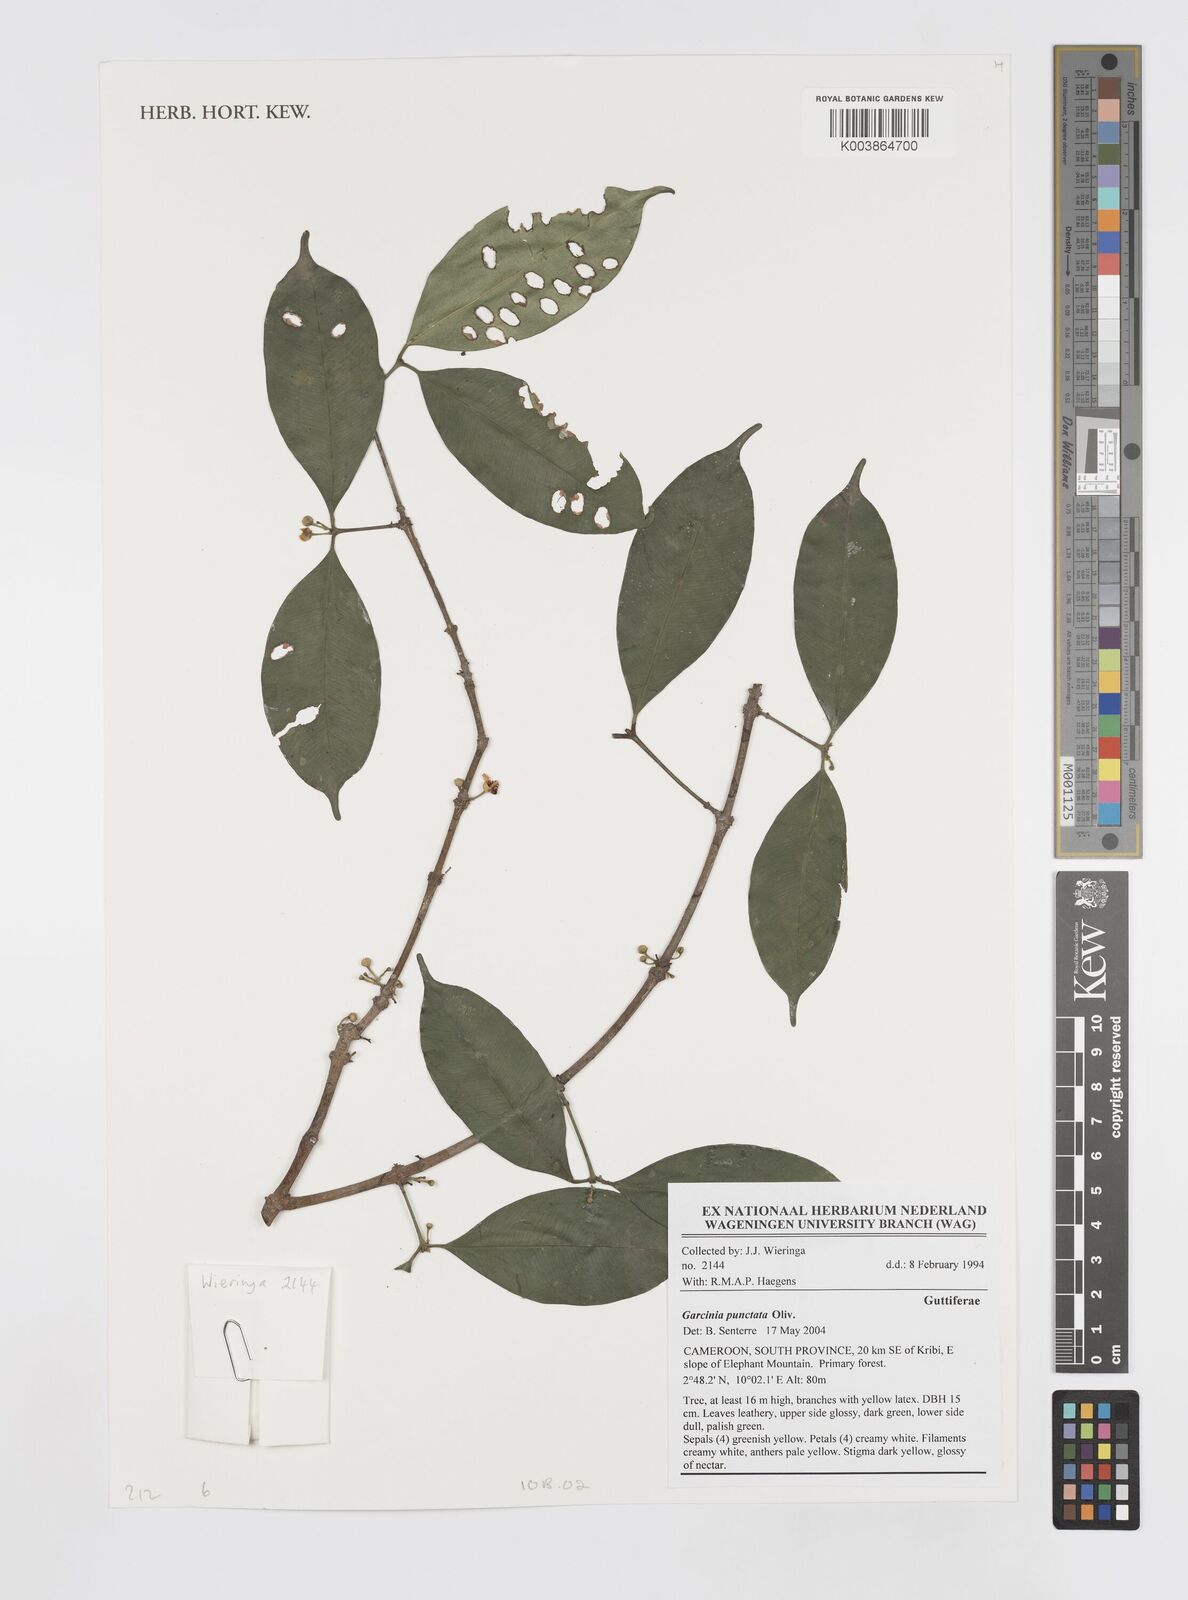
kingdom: Plantae
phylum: Tracheophyta
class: Magnoliopsida
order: Malpighiales
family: Clusiaceae
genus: Garcinia
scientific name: Garcinia punctata
